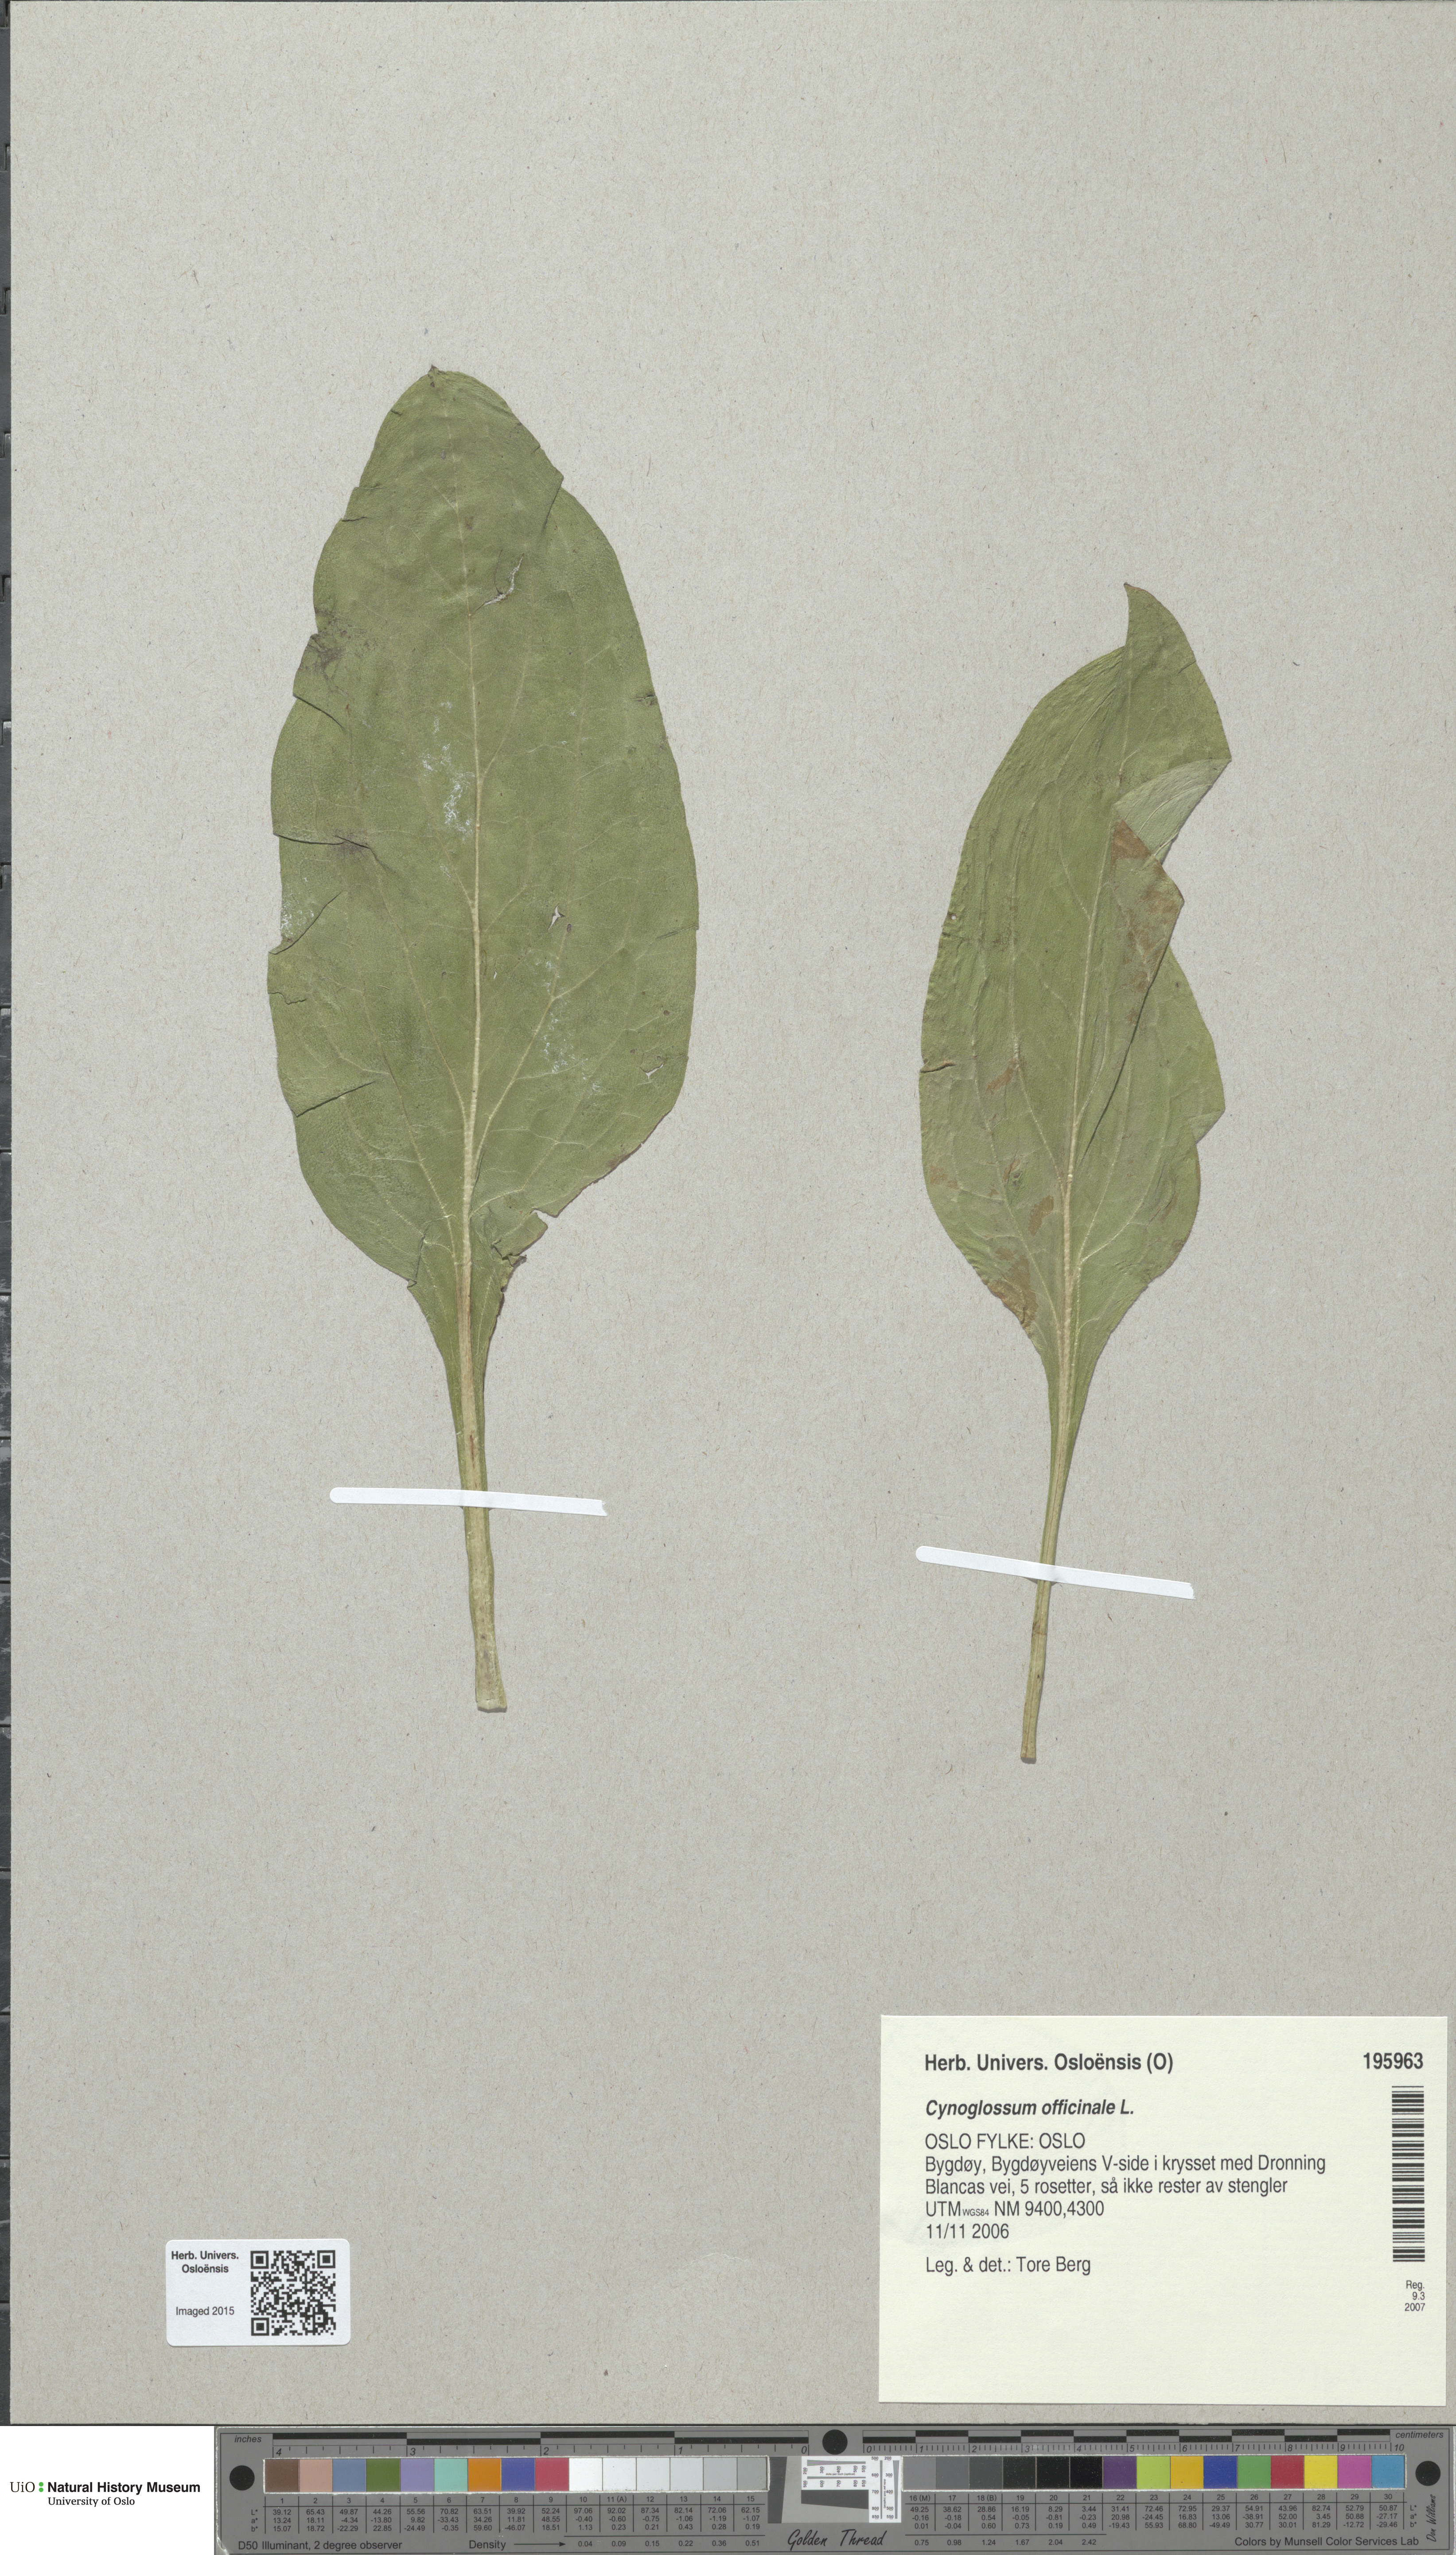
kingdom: Plantae
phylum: Tracheophyta
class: Magnoliopsida
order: Boraginales
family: Boraginaceae
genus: Cynoglossum
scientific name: Cynoglossum officinale
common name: Hound's-tongue
